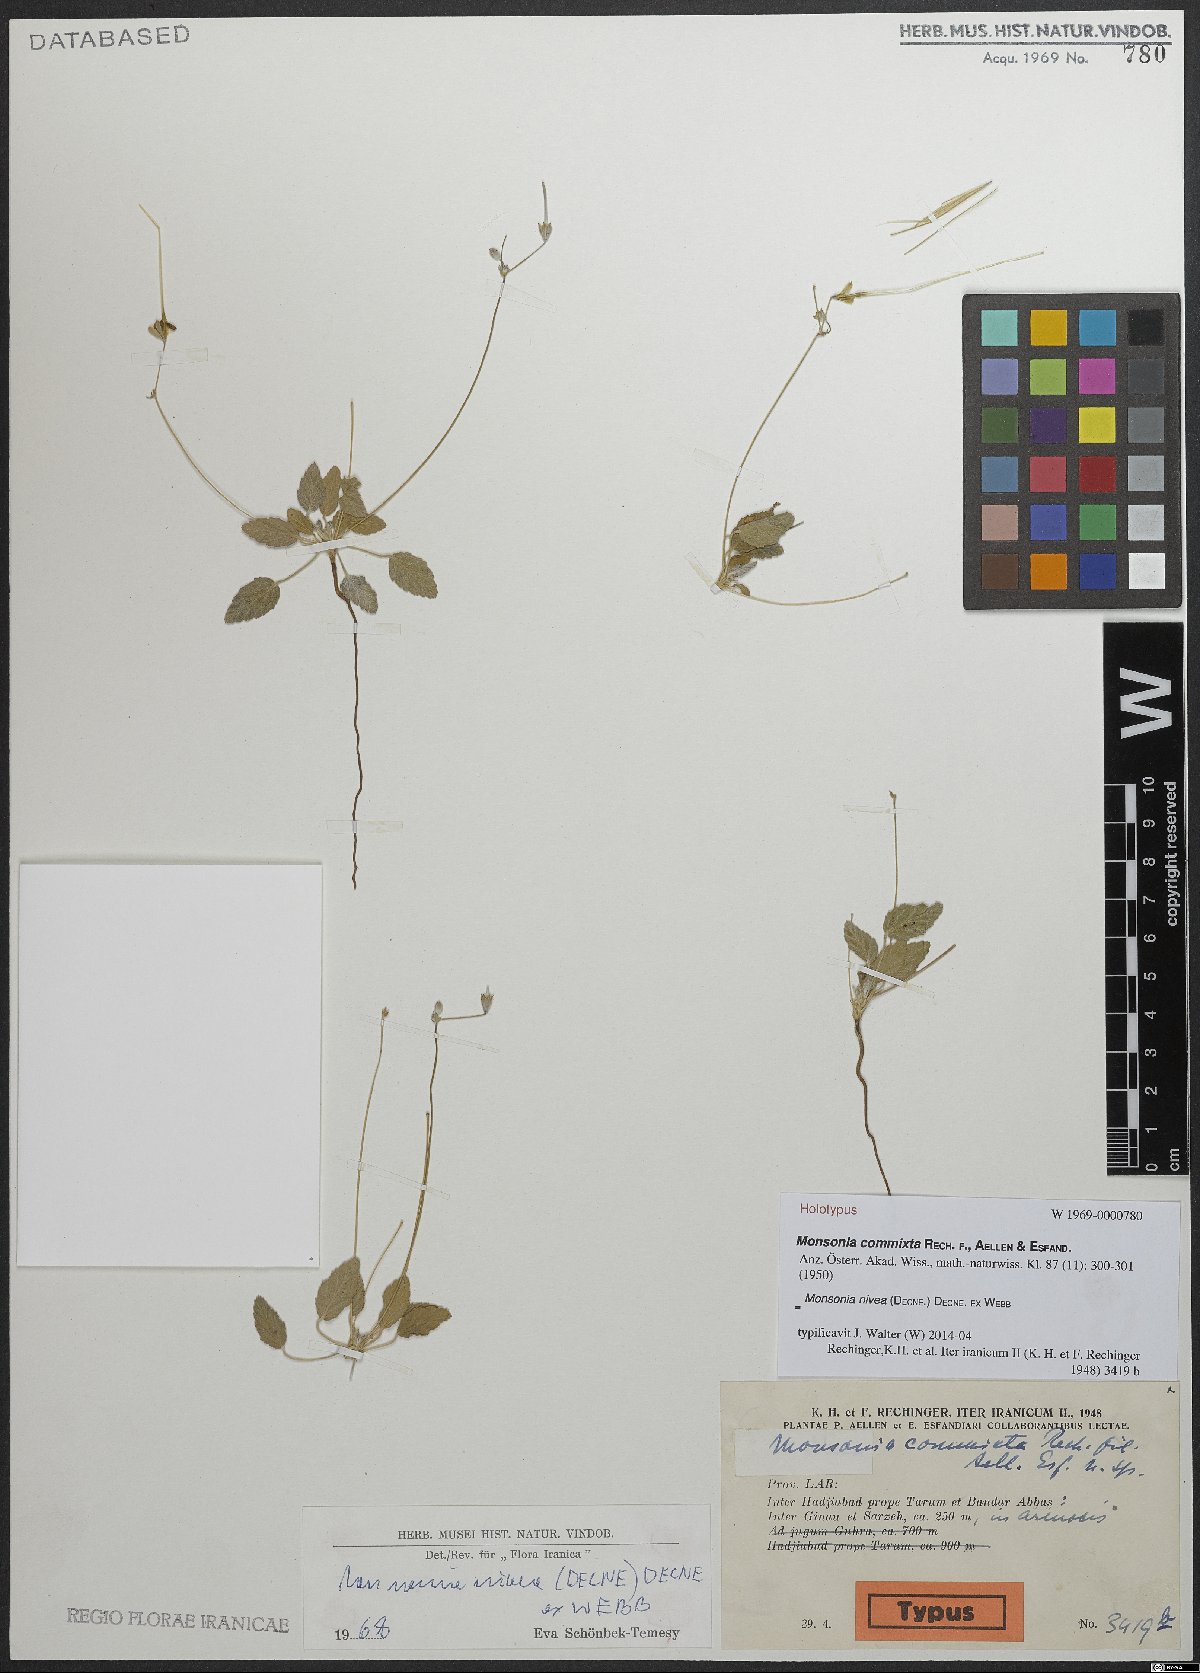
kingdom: Plantae
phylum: Tracheophyta
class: Magnoliopsida
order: Geraniales
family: Geraniaceae
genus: Monsonia
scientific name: Monsonia nivea
